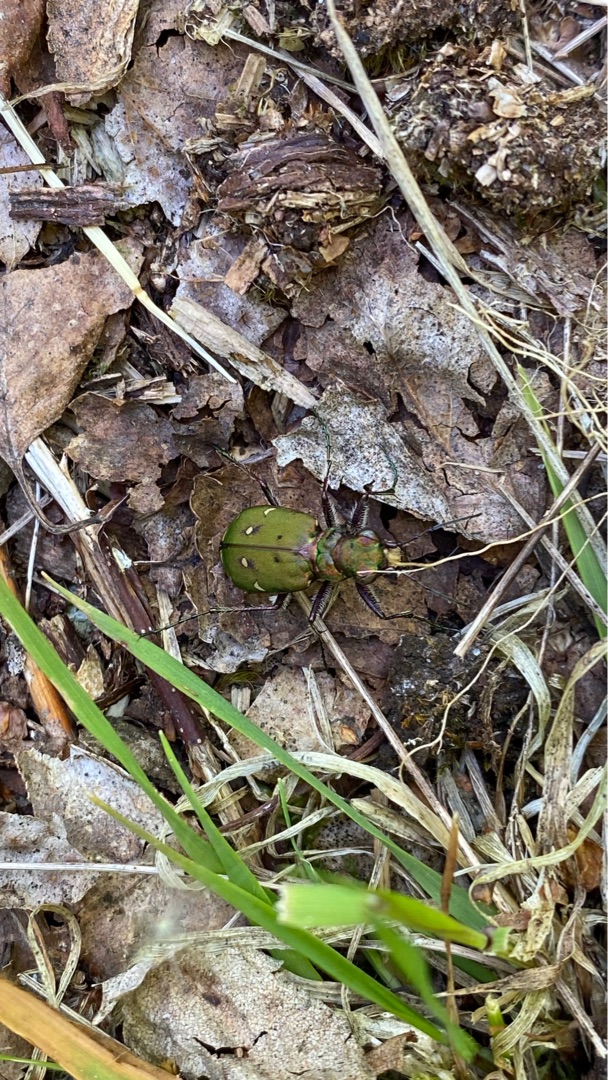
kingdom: Animalia
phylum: Arthropoda
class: Insecta
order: Coleoptera
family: Carabidae
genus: Cicindela
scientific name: Cicindela campestris
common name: Grøn sandspringer
